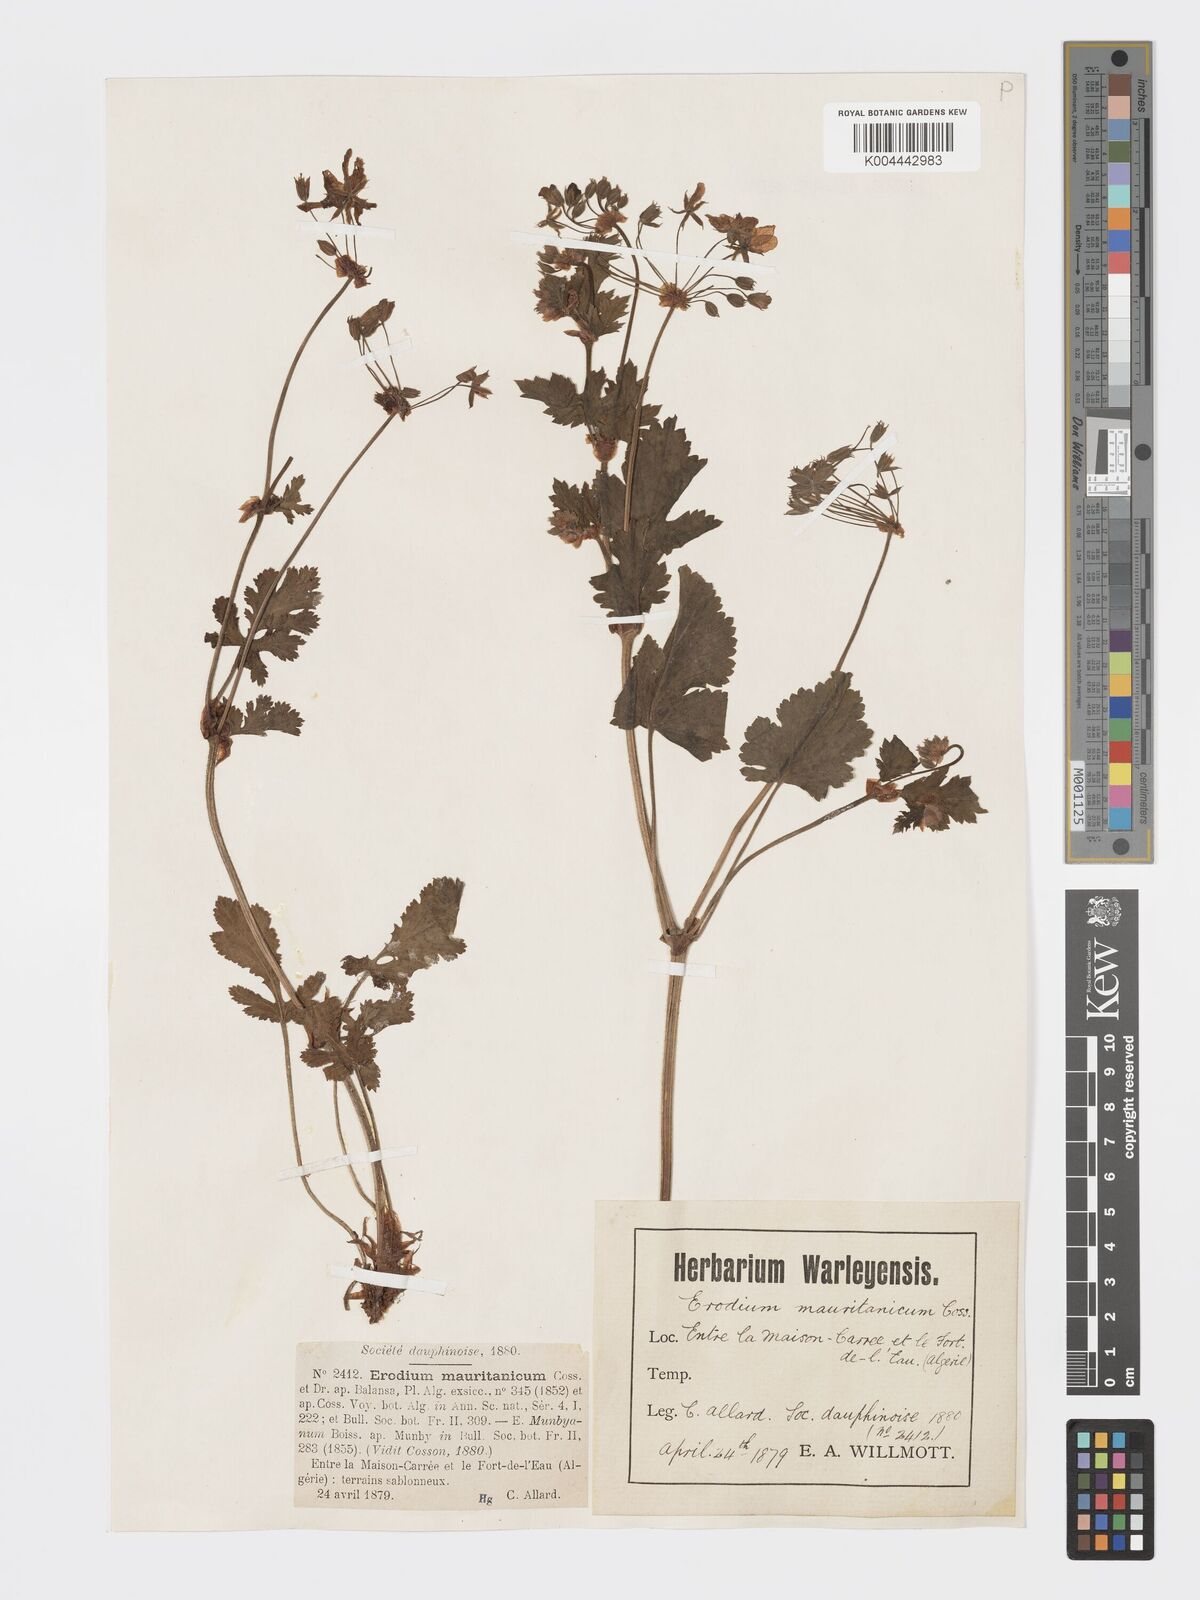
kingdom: Plantae
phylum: Tracheophyta
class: Magnoliopsida
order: Geraniales
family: Geraniaceae
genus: Erodium
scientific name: Erodium munbyanum
